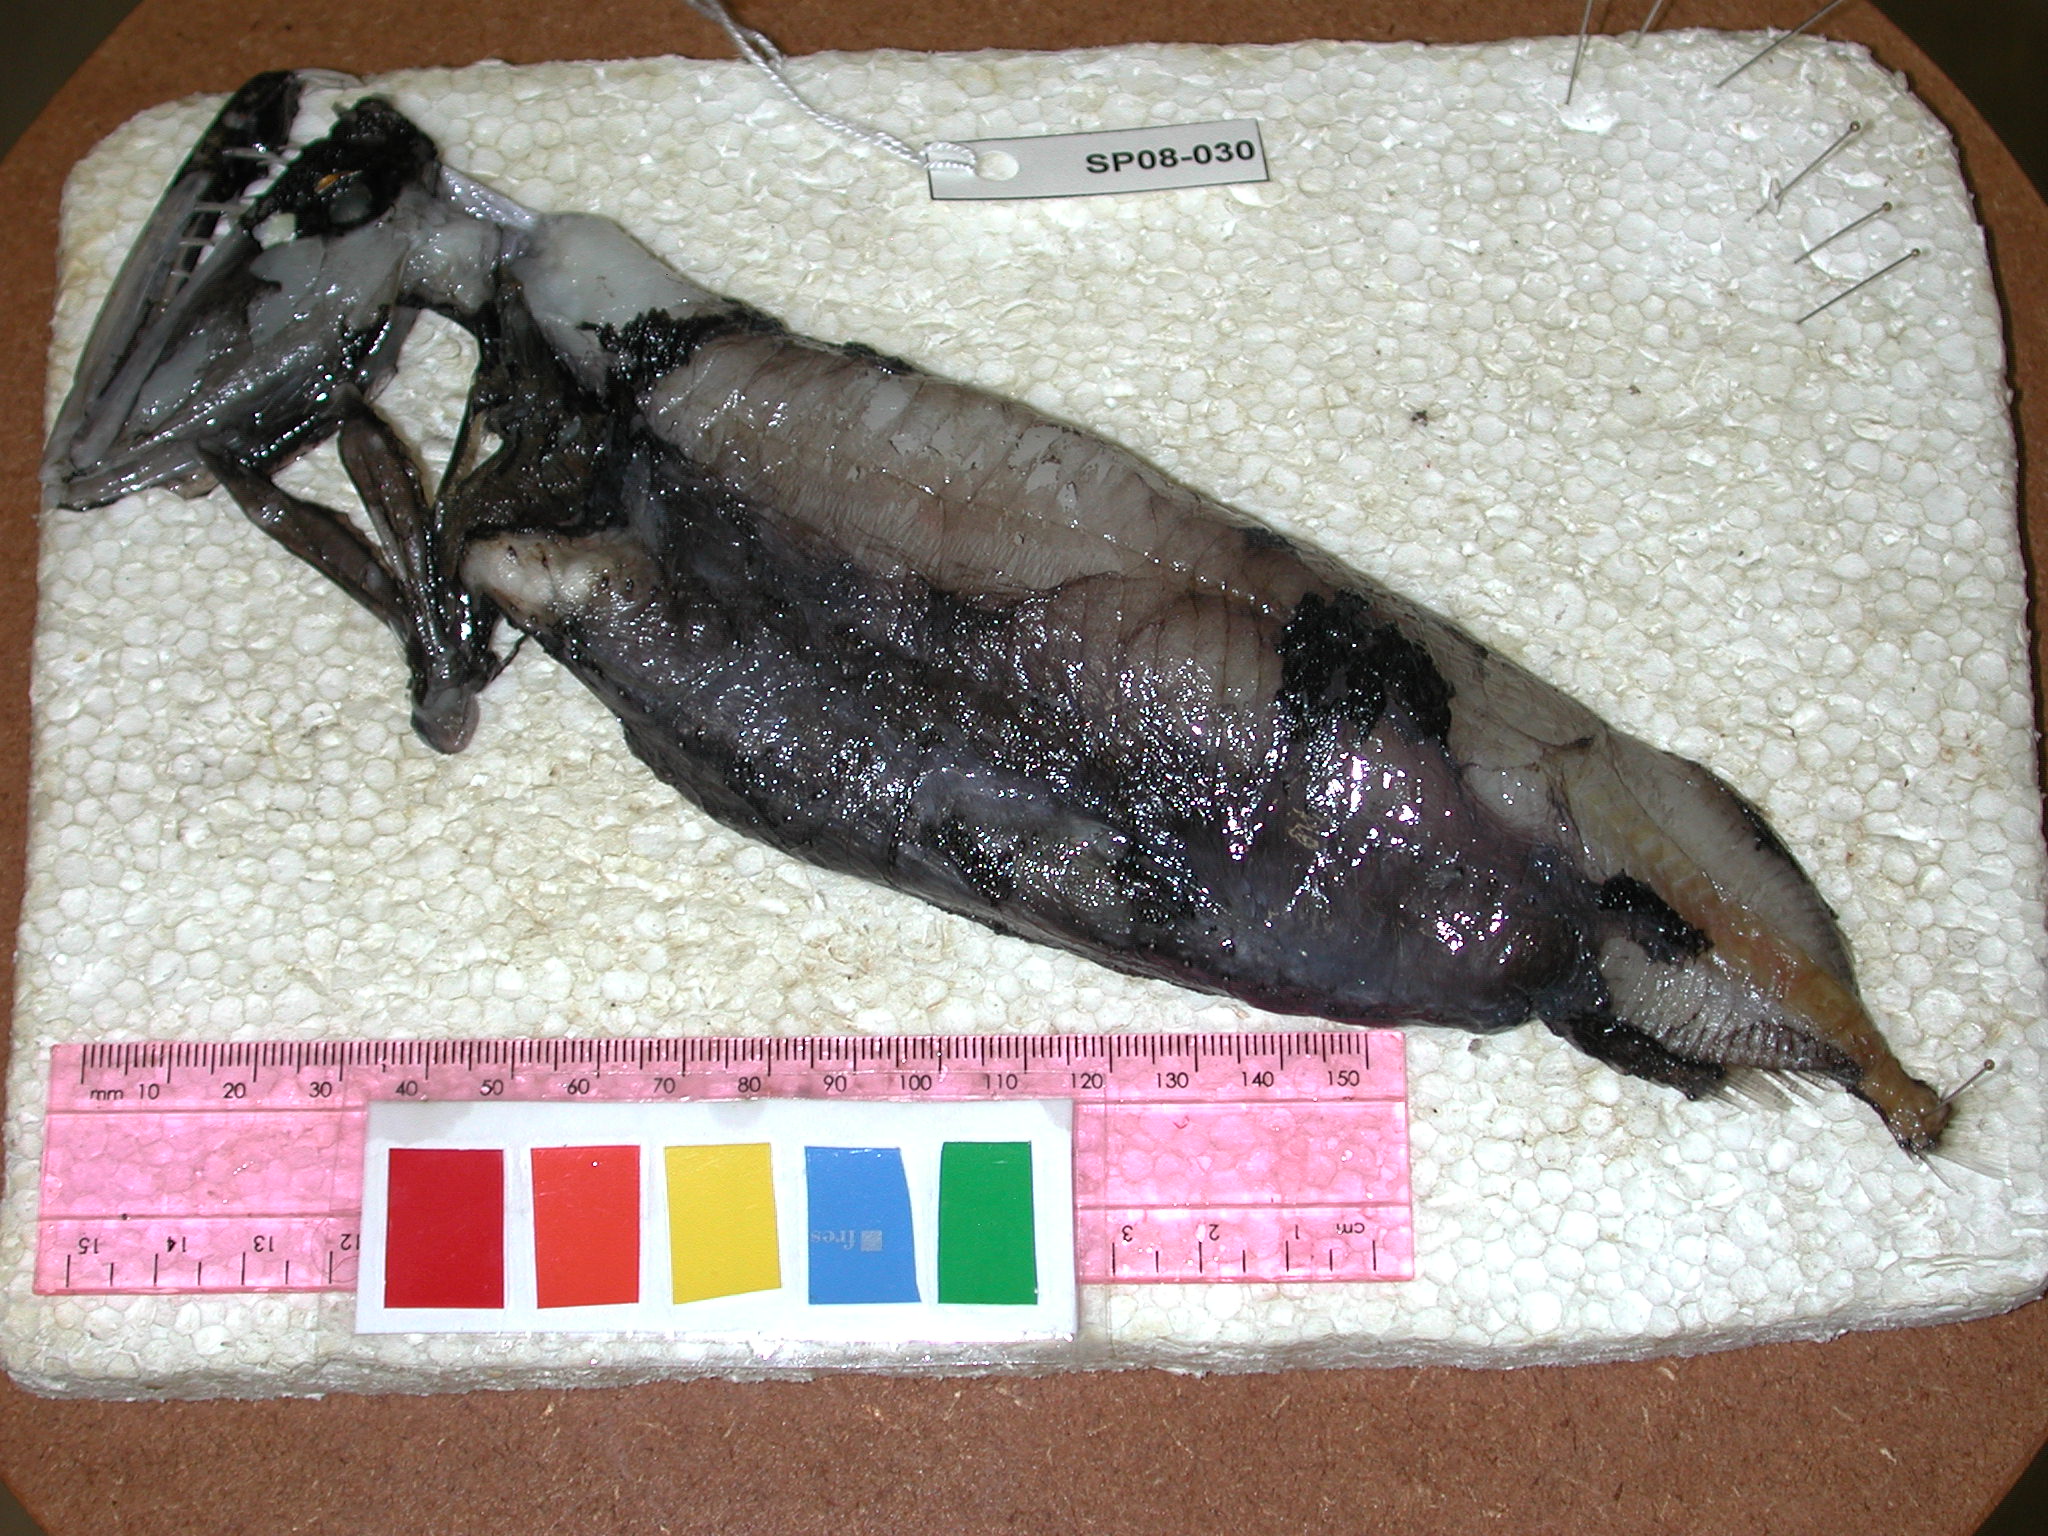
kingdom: Animalia
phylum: Chordata
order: Stomiiformes
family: Stomiidae
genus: Pachystomias
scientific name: Pachystomias microdon
